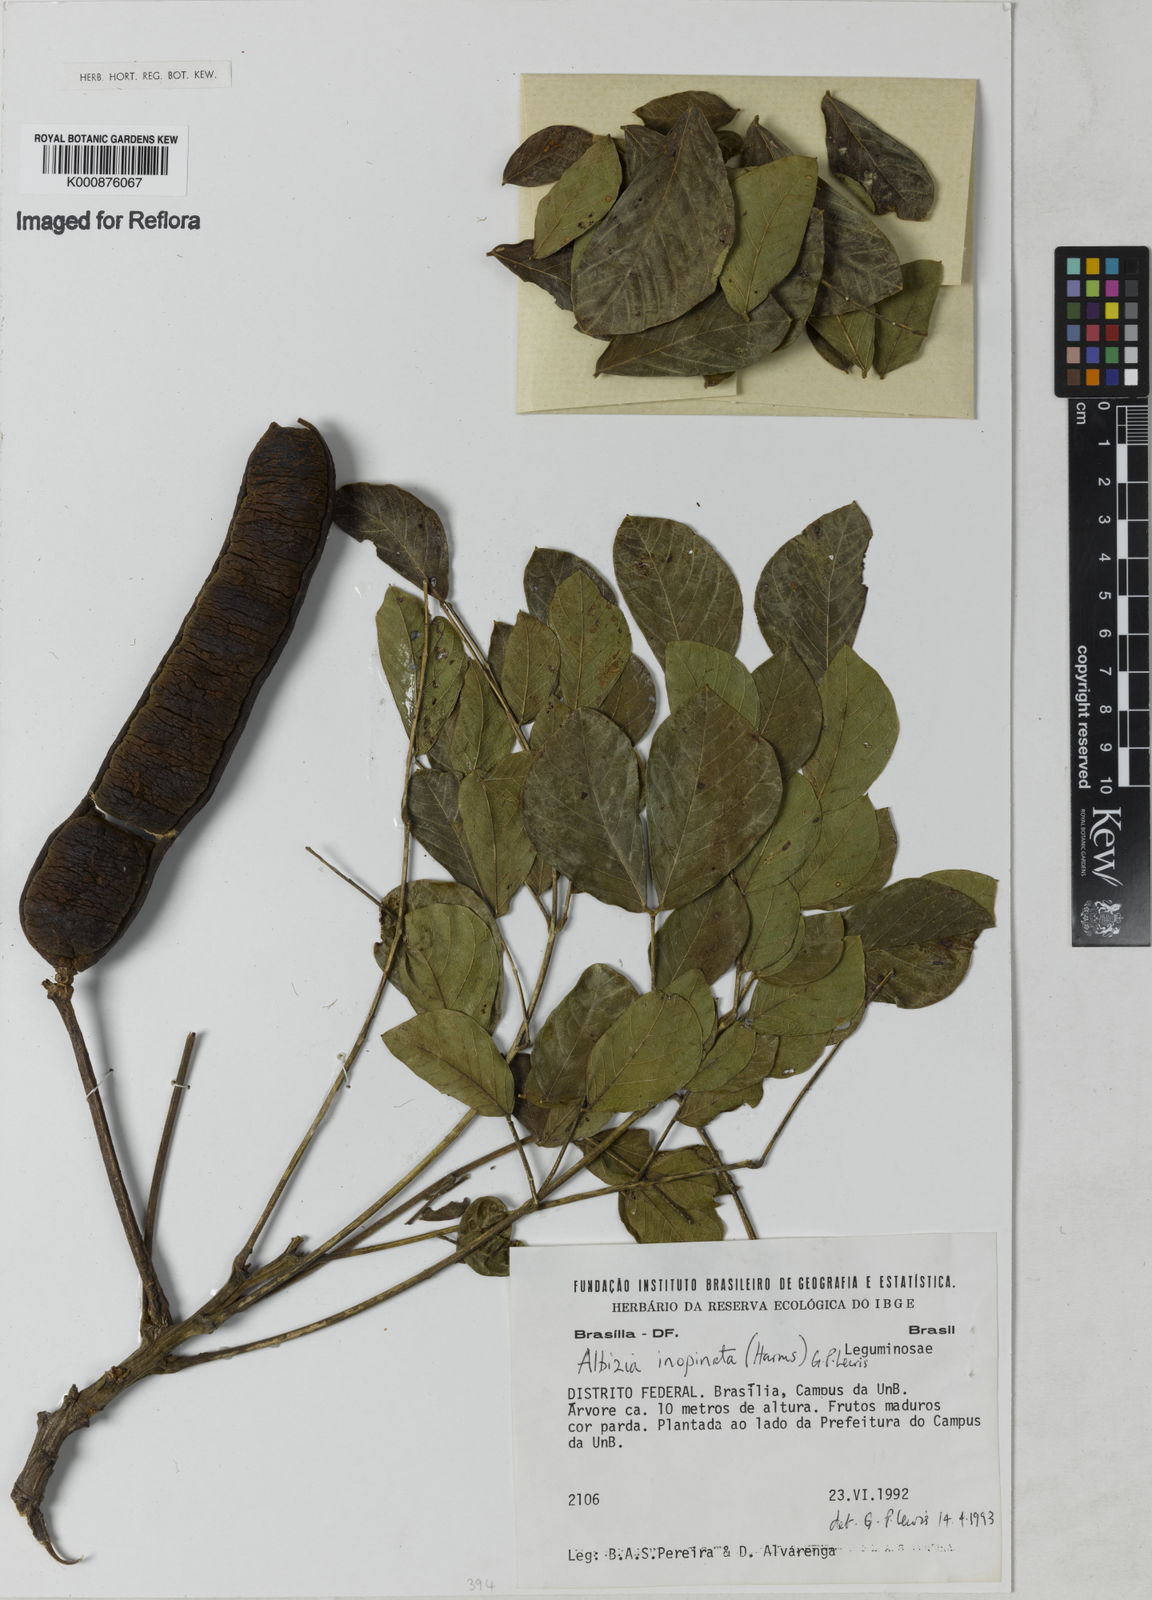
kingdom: Plantae
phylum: Tracheophyta
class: Magnoliopsida
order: Fabales
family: Fabaceae
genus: Samanea
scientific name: Samanea inopinata
